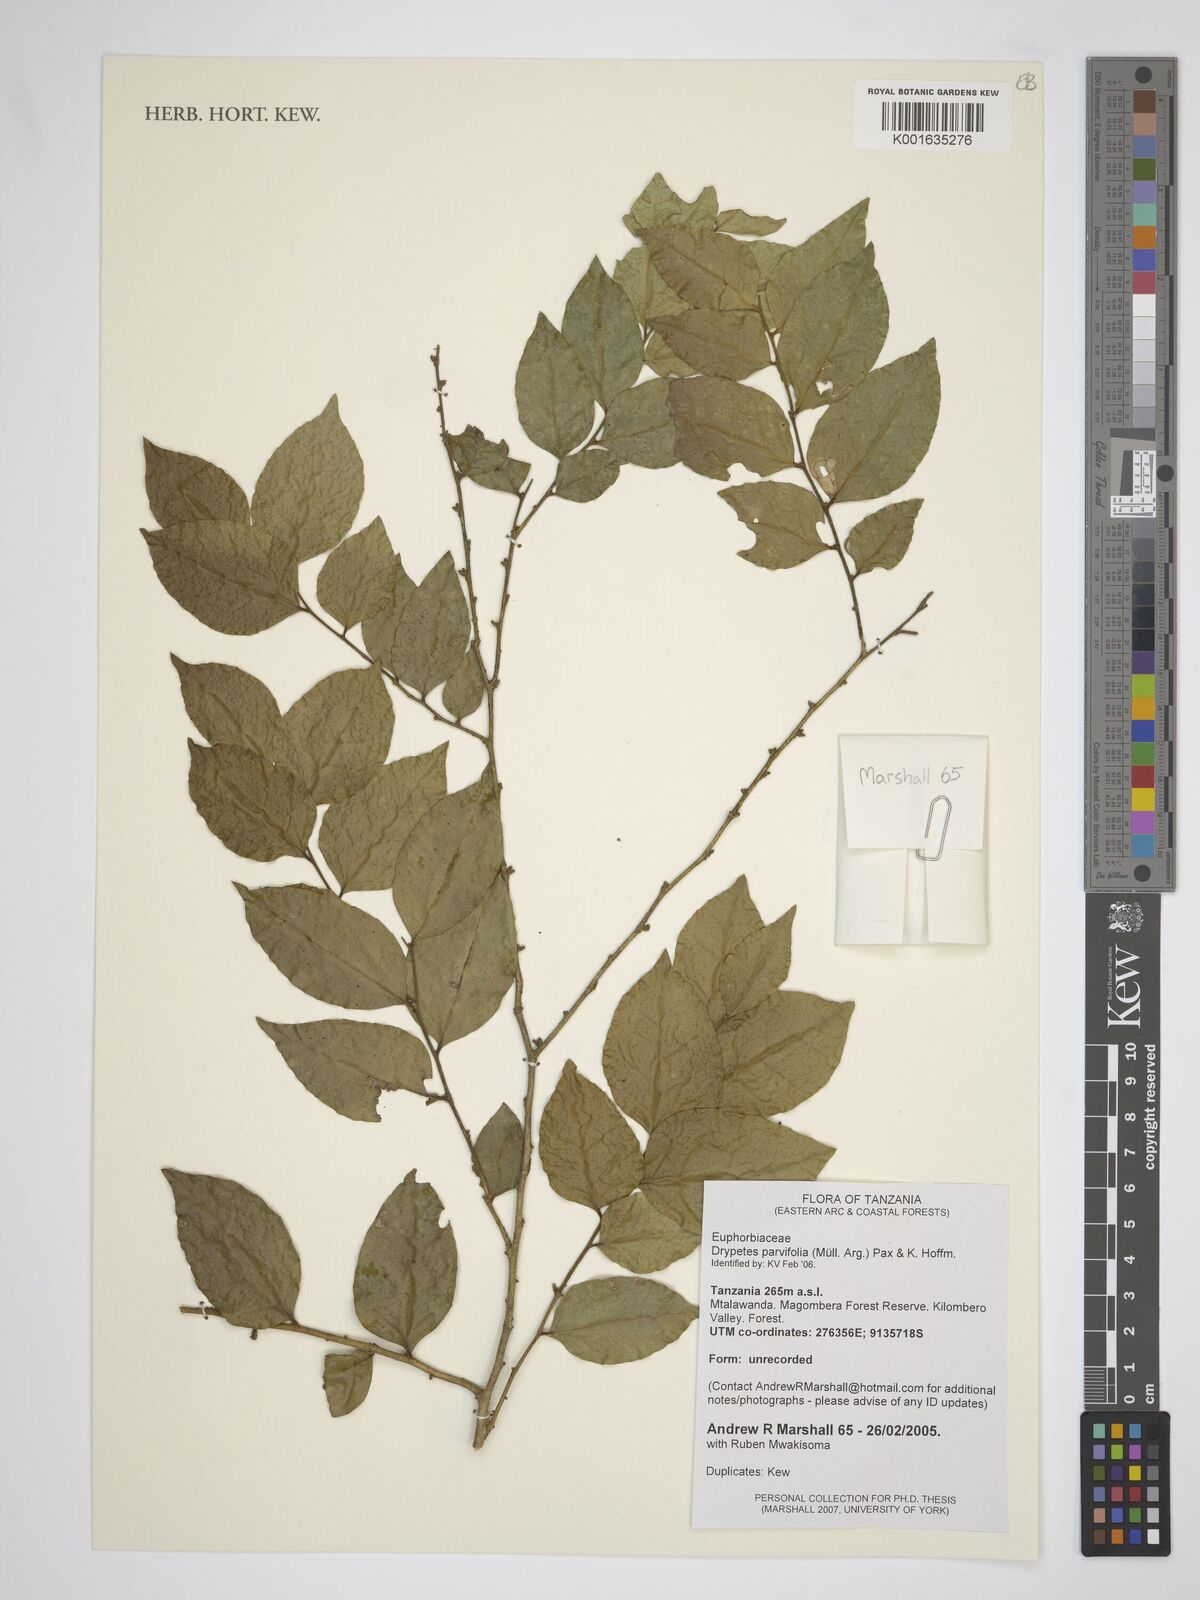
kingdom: Plantae
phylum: Tracheophyta
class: Magnoliopsida
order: Malpighiales
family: Putranjivaceae
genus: Drypetes
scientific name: Drypetes parvifolia
